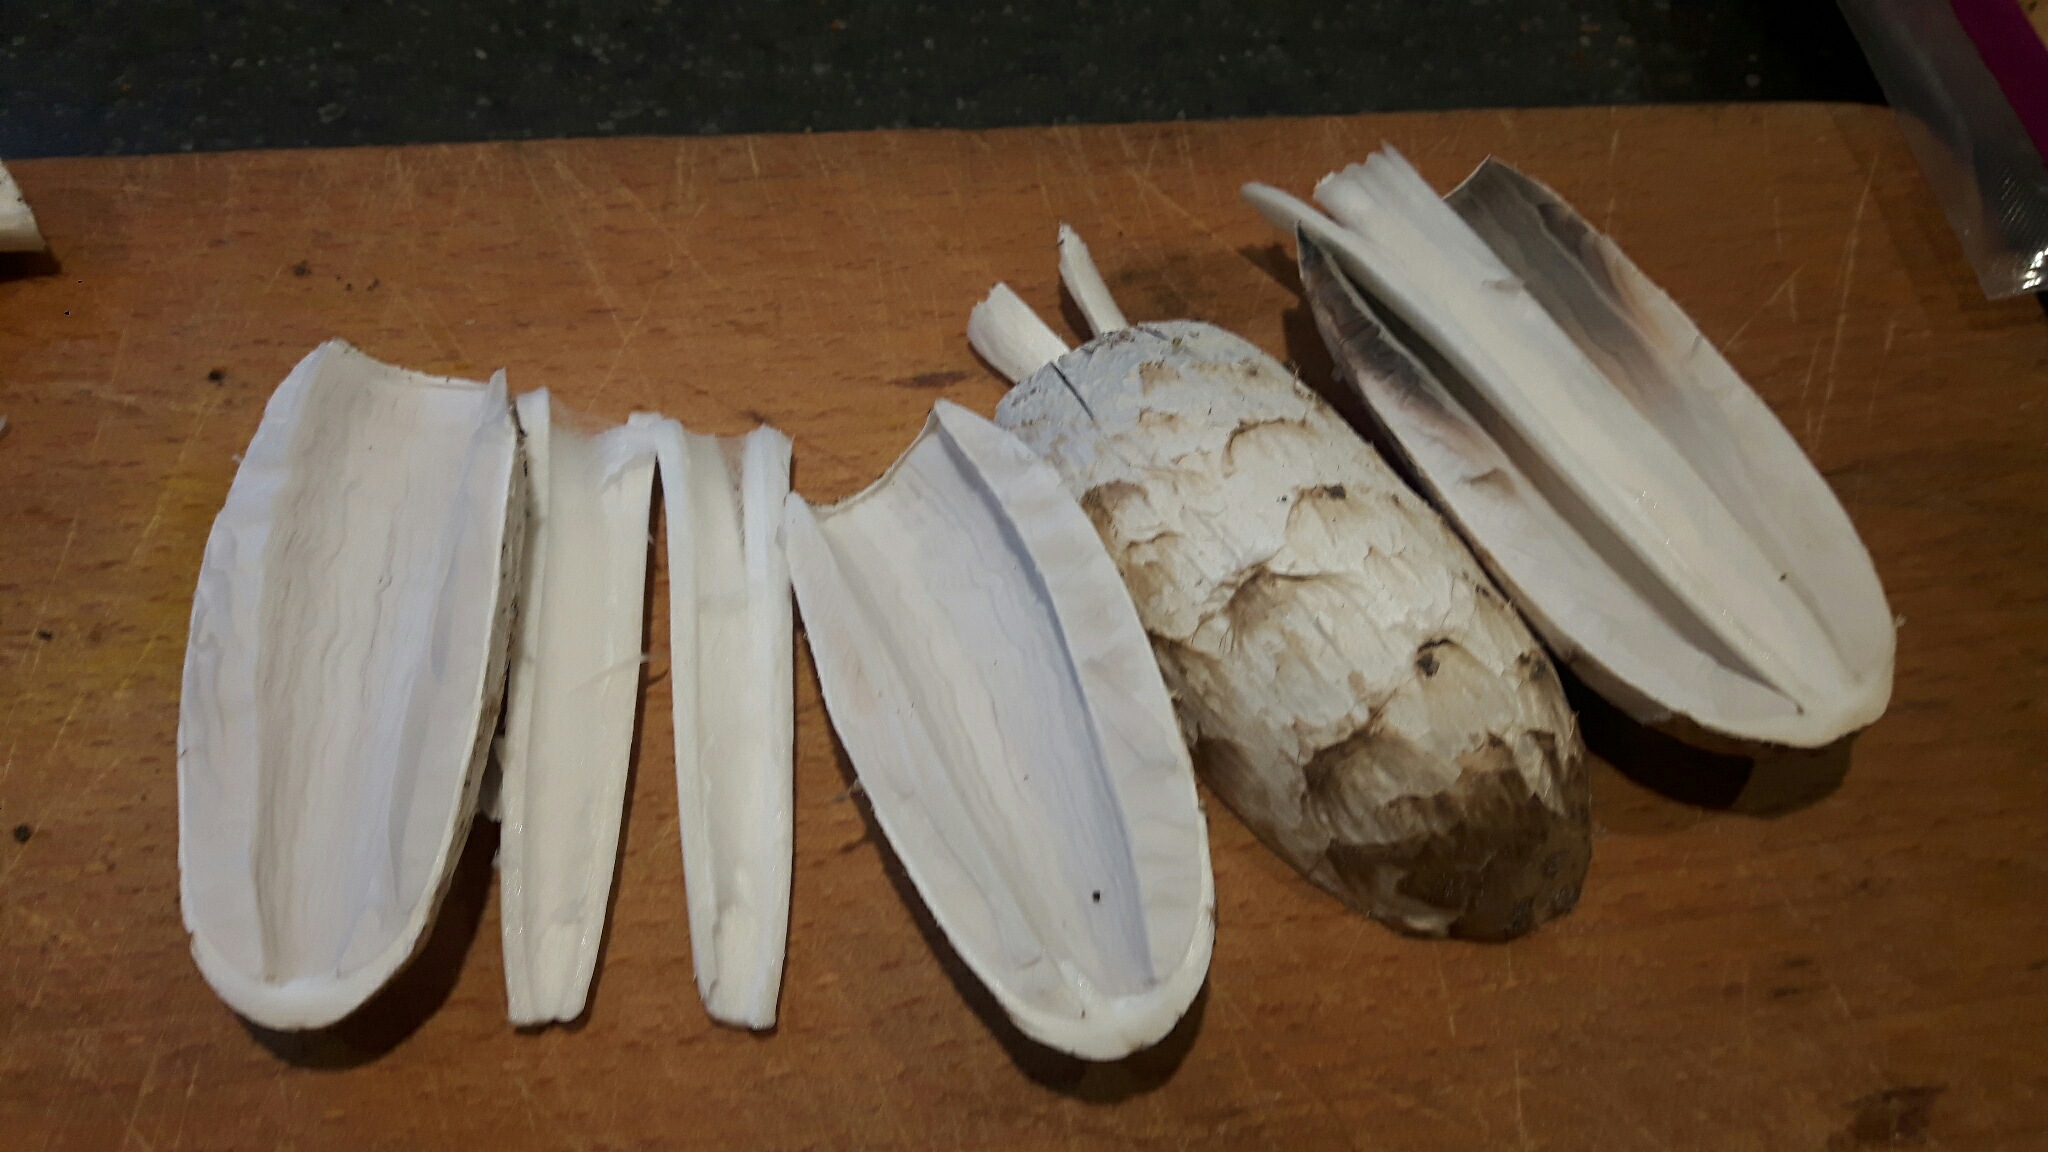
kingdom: Fungi
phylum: Basidiomycota
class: Agaricomycetes
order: Agaricales
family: Agaricaceae
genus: Coprinus
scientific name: Coprinus comatus
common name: stor parykhat
